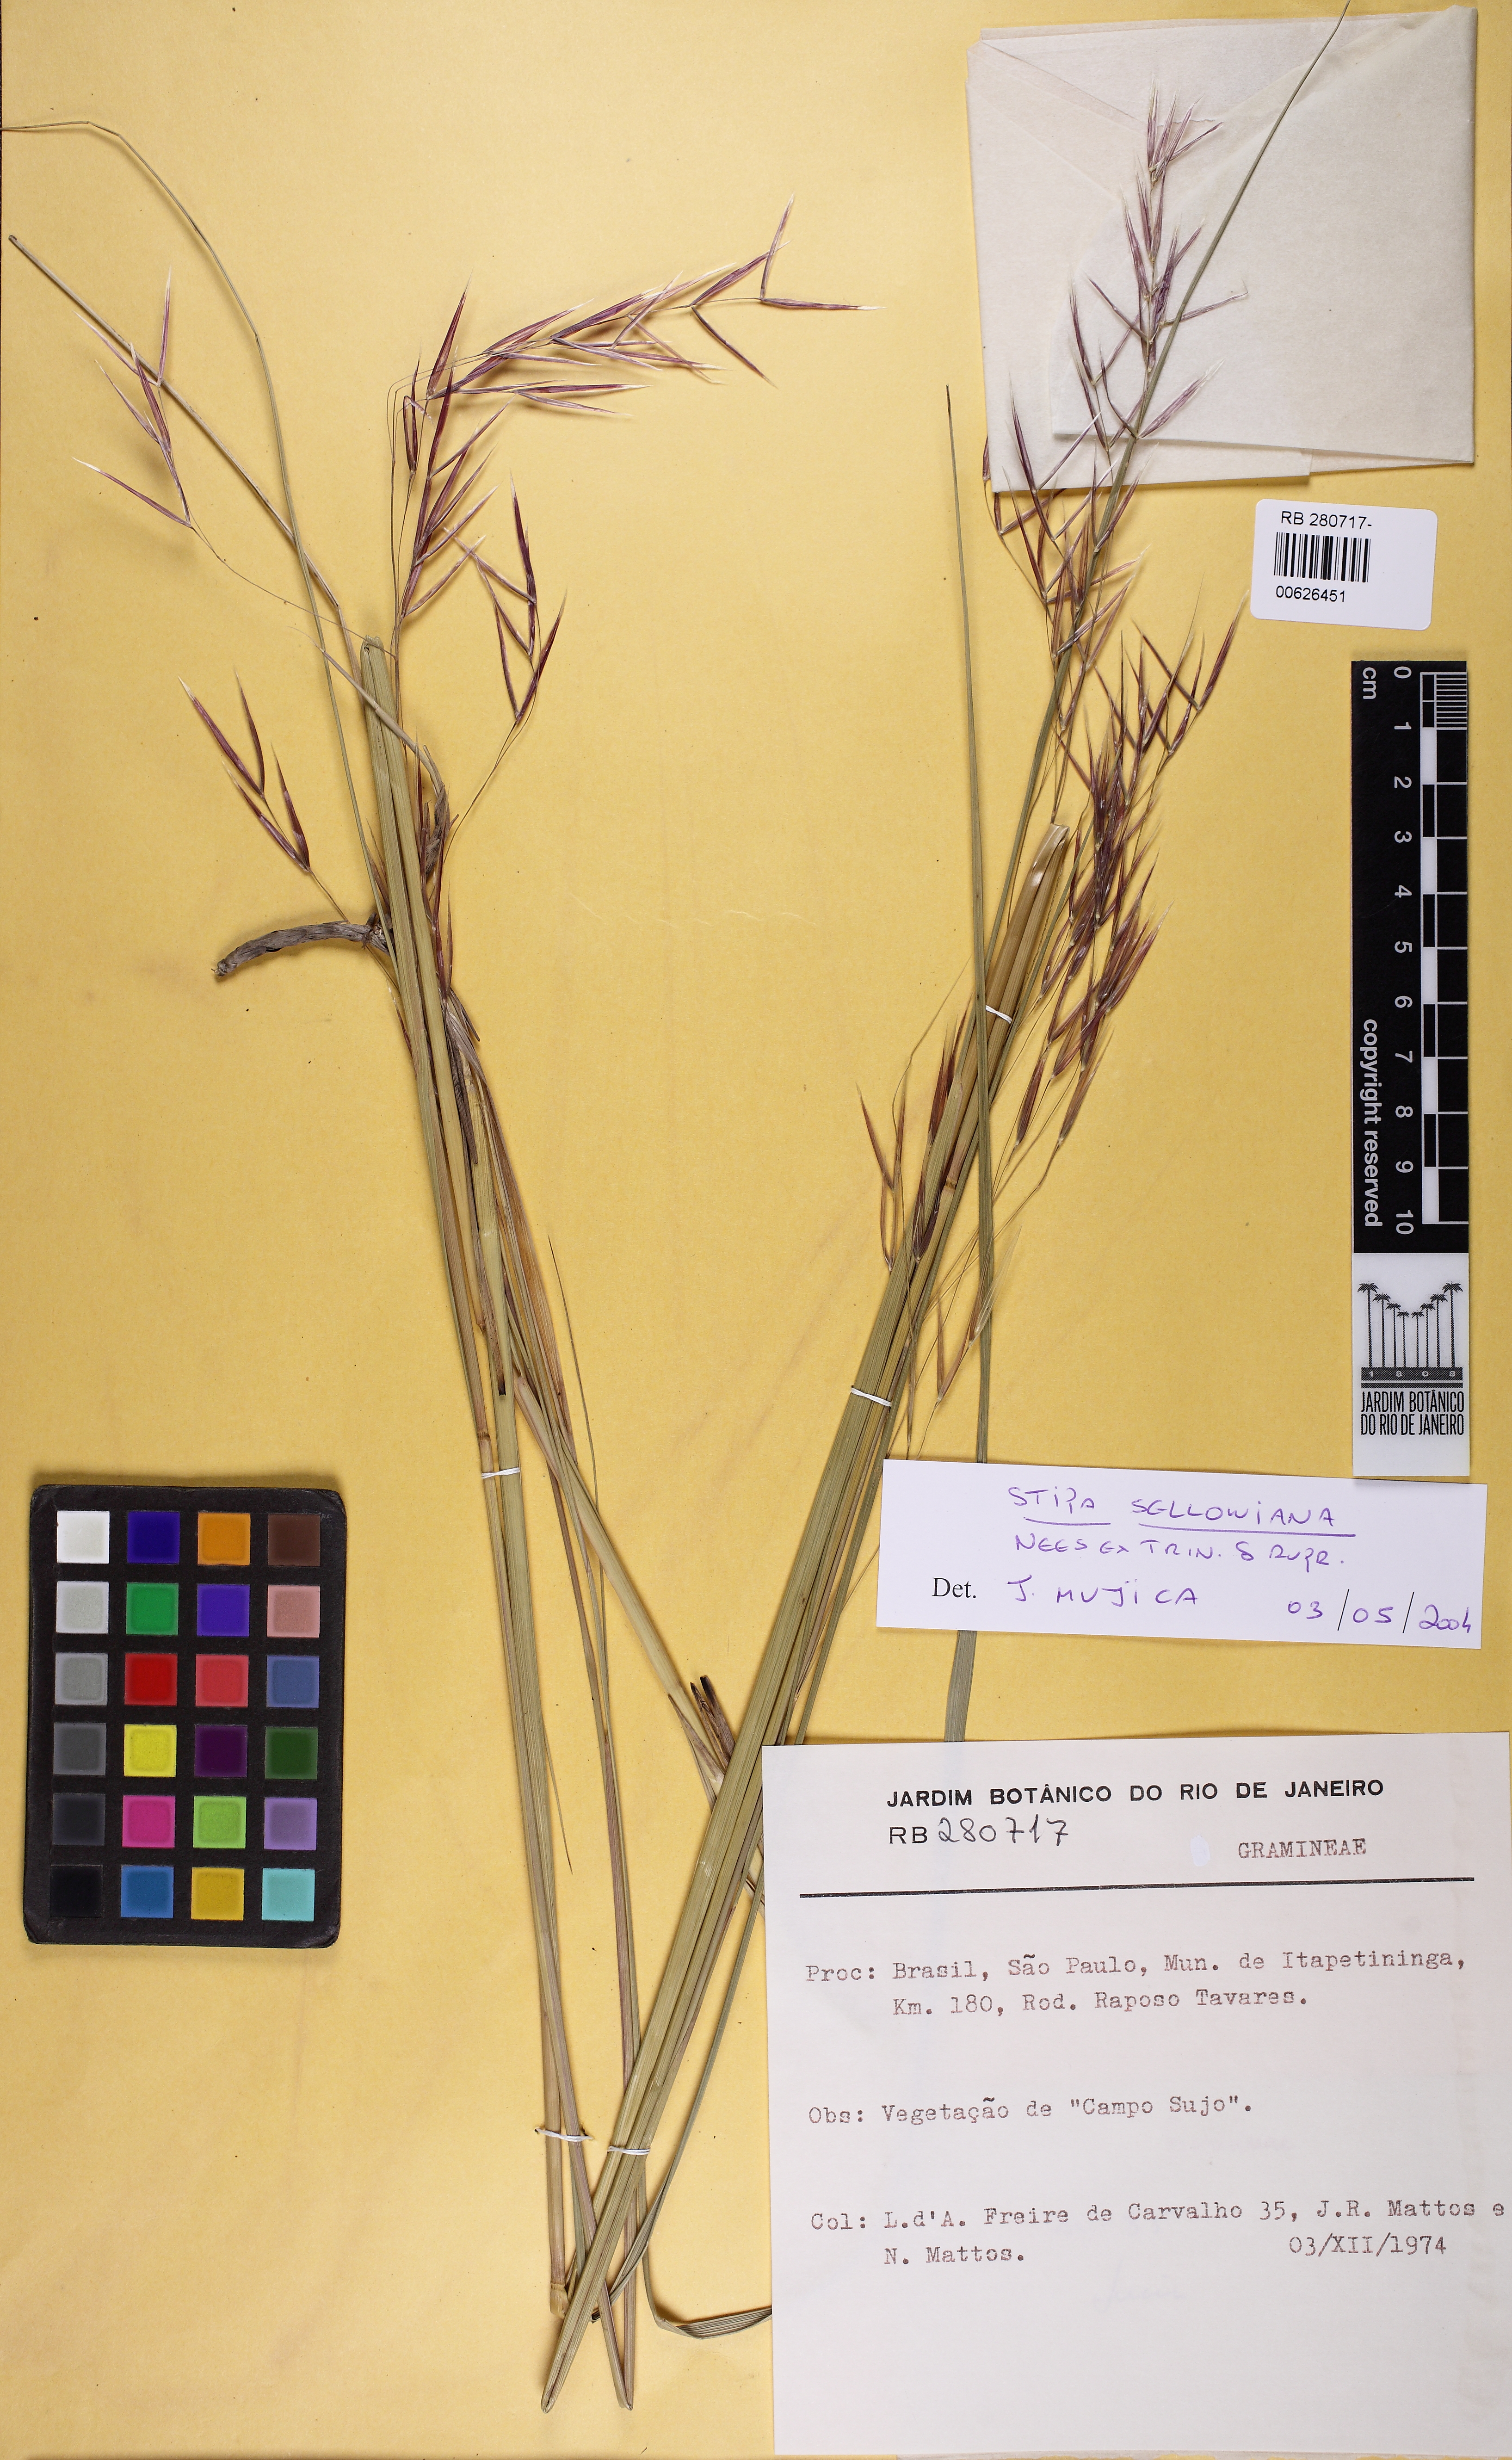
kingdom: Plantae
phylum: Tracheophyta
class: Liliopsida
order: Poales
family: Poaceae
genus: Nassella
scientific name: Nassella sellowiana
